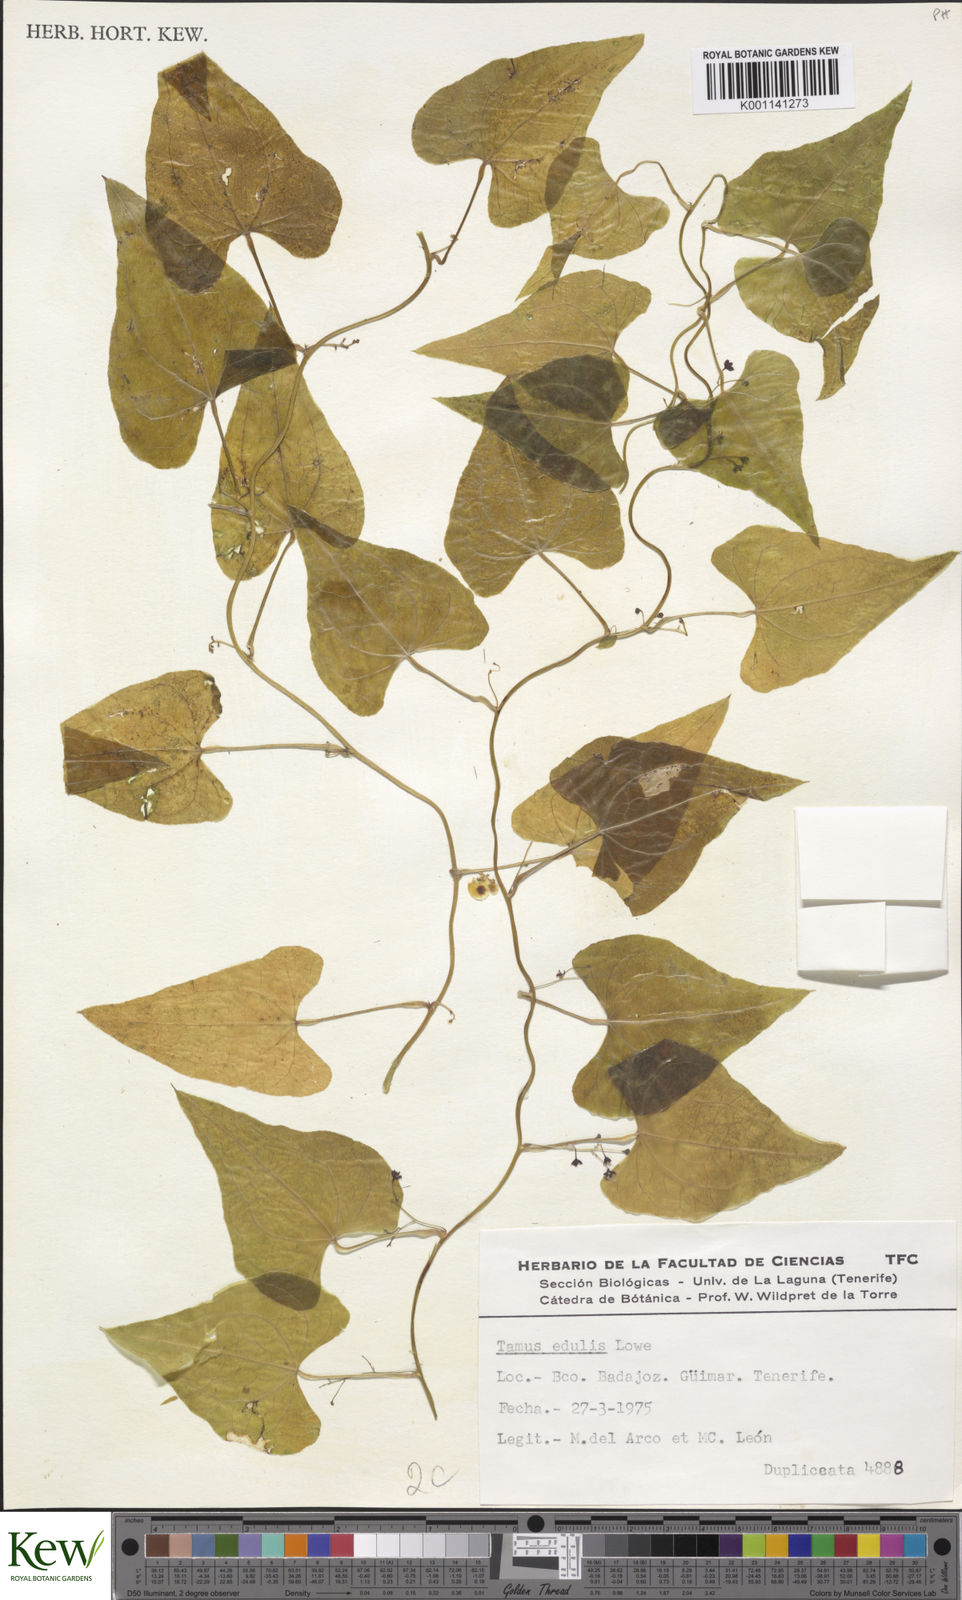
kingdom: Plantae
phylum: Tracheophyta
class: Liliopsida
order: Dioscoreales
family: Dioscoreaceae
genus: Dioscorea
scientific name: Dioscorea
